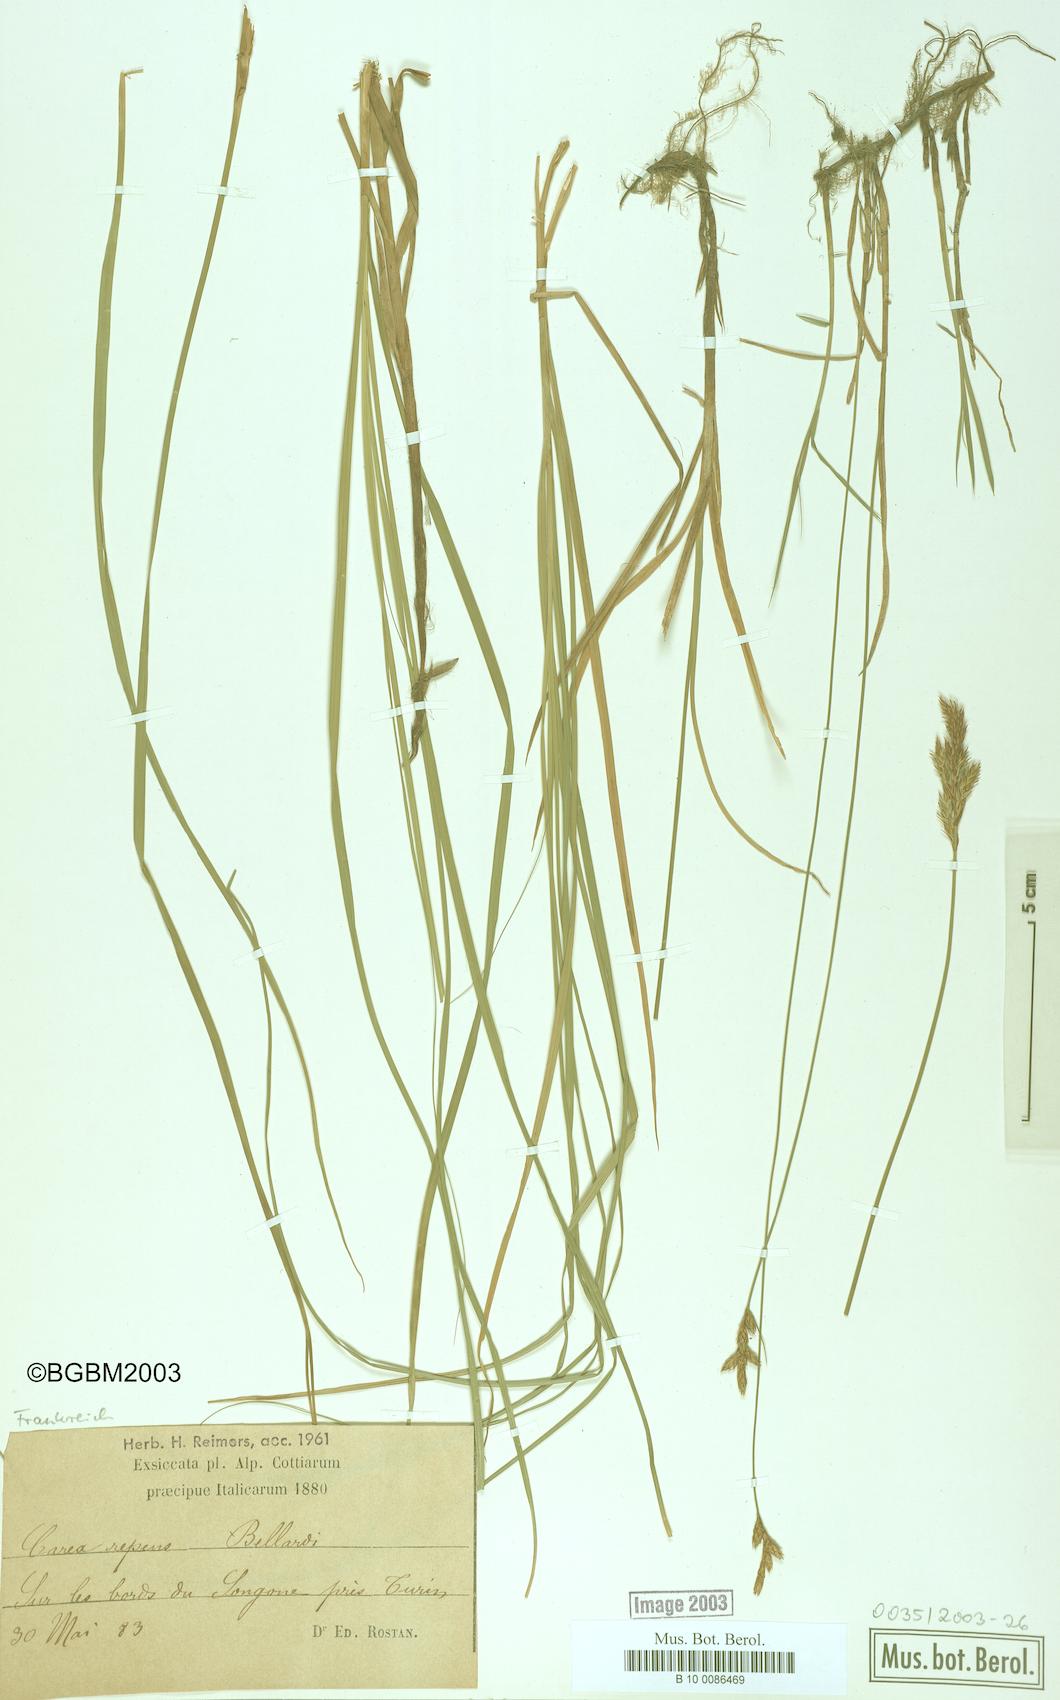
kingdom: Plantae
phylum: Tracheophyta
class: Liliopsida
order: Poales
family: Cyperaceae
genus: Carex
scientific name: Carex repens
